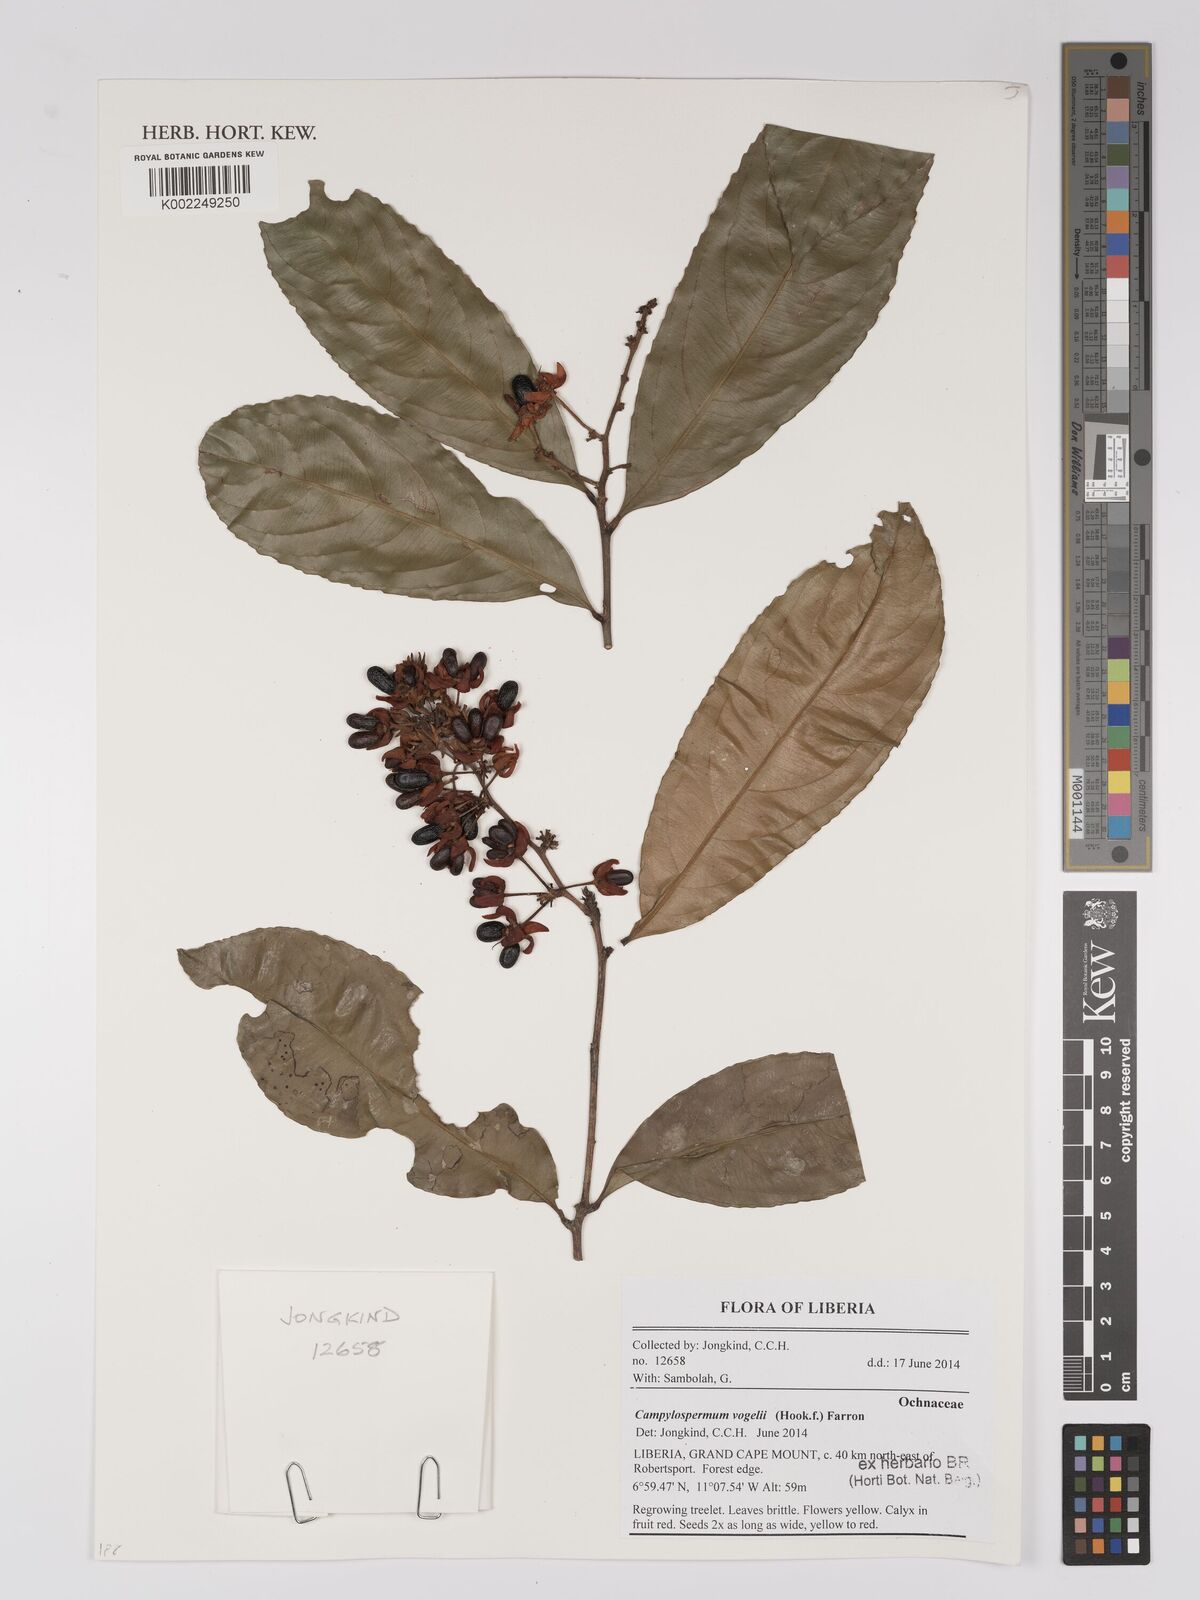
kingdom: Plantae
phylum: Tracheophyta
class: Magnoliopsida
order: Malpighiales
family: Ochnaceae
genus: Campylospermum
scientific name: Campylospermum vogelii
